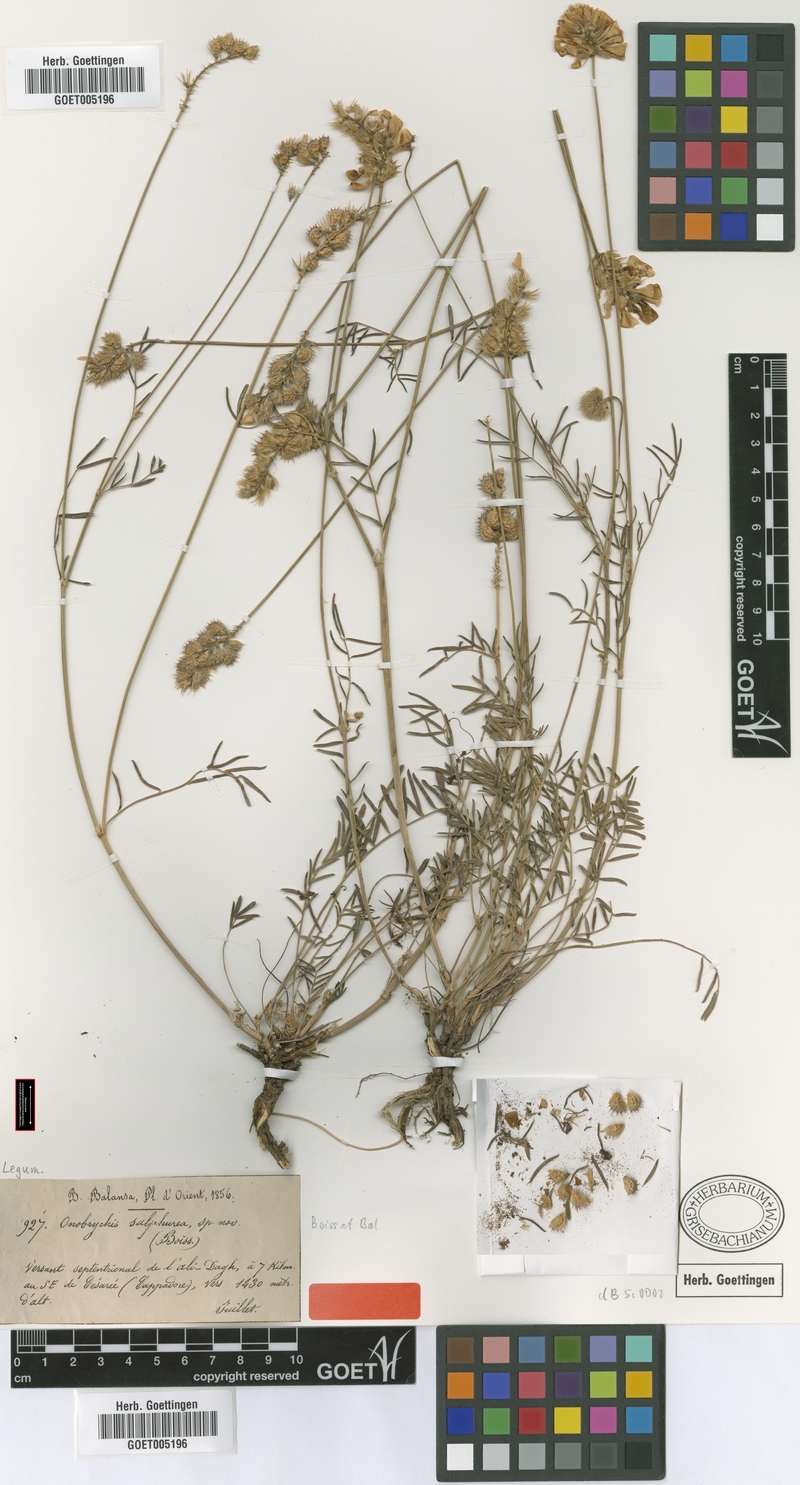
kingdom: Plantae
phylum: Tracheophyta
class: Magnoliopsida
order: Fabales
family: Fabaceae
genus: Onobrychis
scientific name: Onobrychis sulphurea
